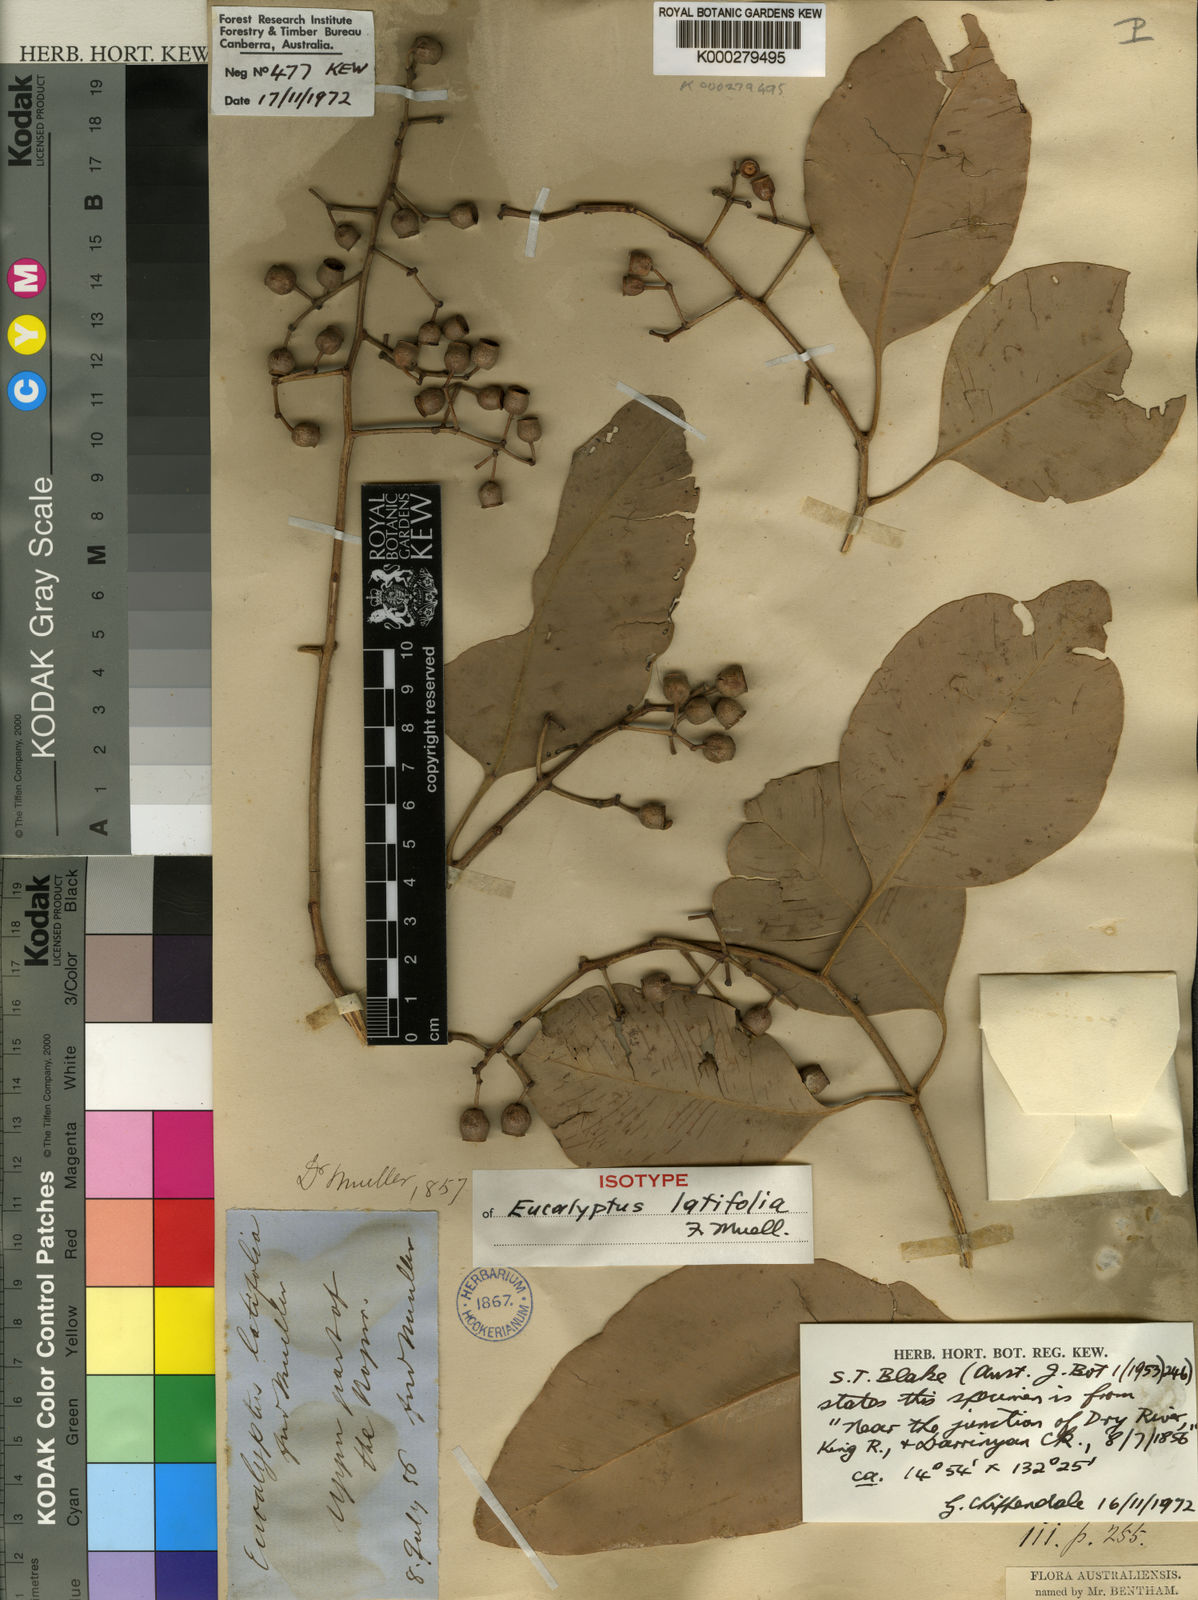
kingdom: Plantae
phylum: Tracheophyta
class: Magnoliopsida
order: Myrtales
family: Myrtaceae
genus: Corymbia
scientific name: Corymbia latifolia
